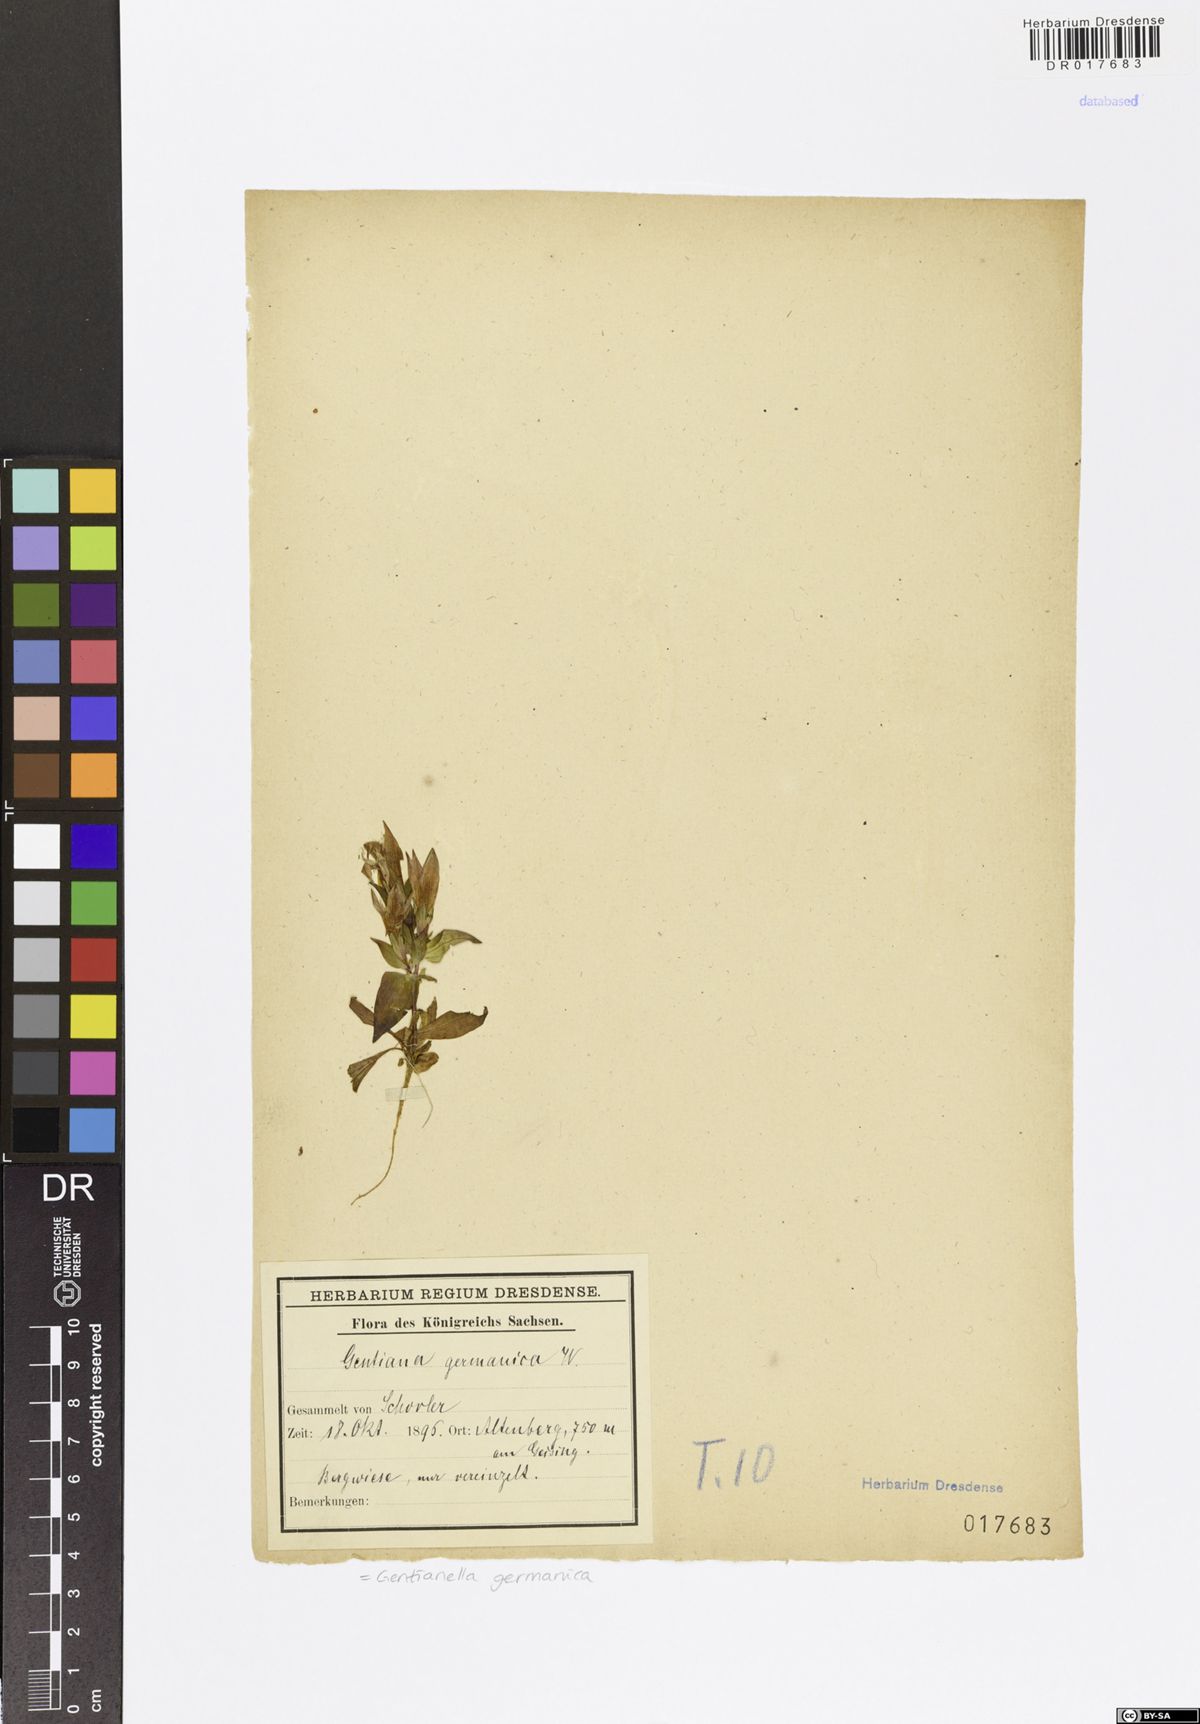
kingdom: Plantae
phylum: Tracheophyta
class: Magnoliopsida
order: Gentianales
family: Gentianaceae
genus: Gentianella
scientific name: Gentianella germanica
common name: Chiltern-gentian
